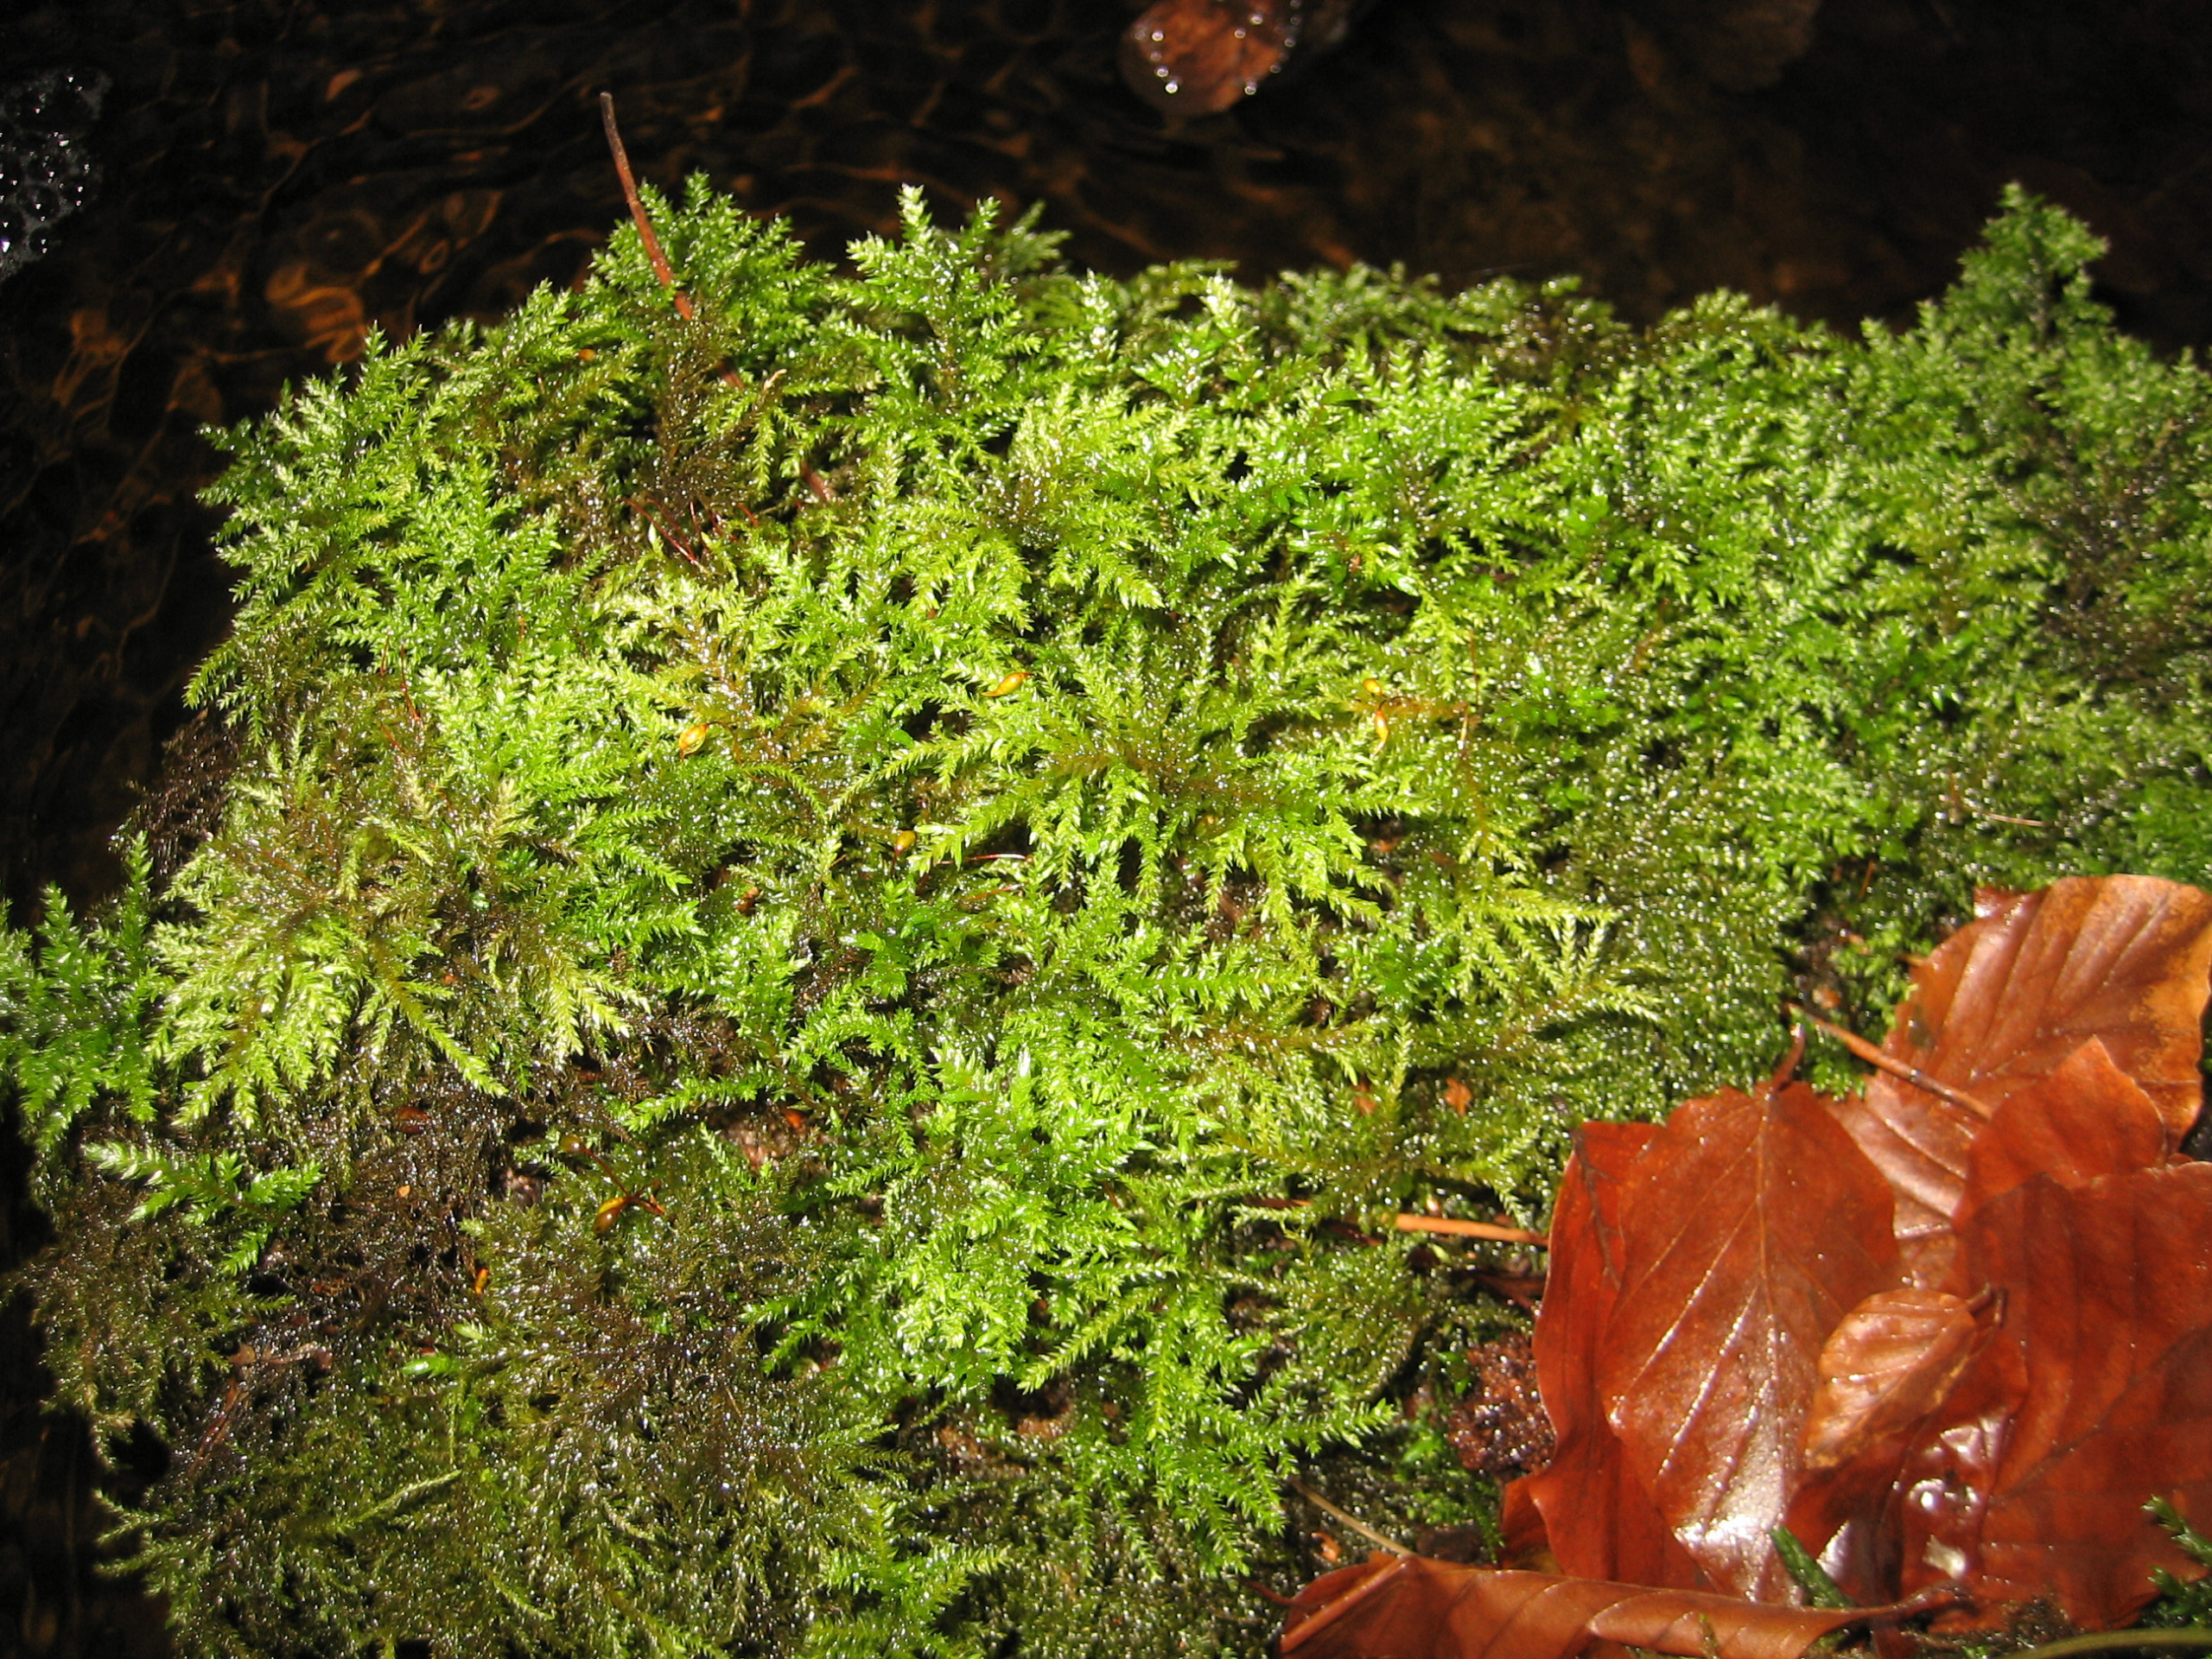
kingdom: Plantae
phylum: Bryophyta
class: Bryopsida
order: Hypnales
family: Neckeraceae
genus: Thamnobryum
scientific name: Thamnobryum alopecurum
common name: Mat bækkost
